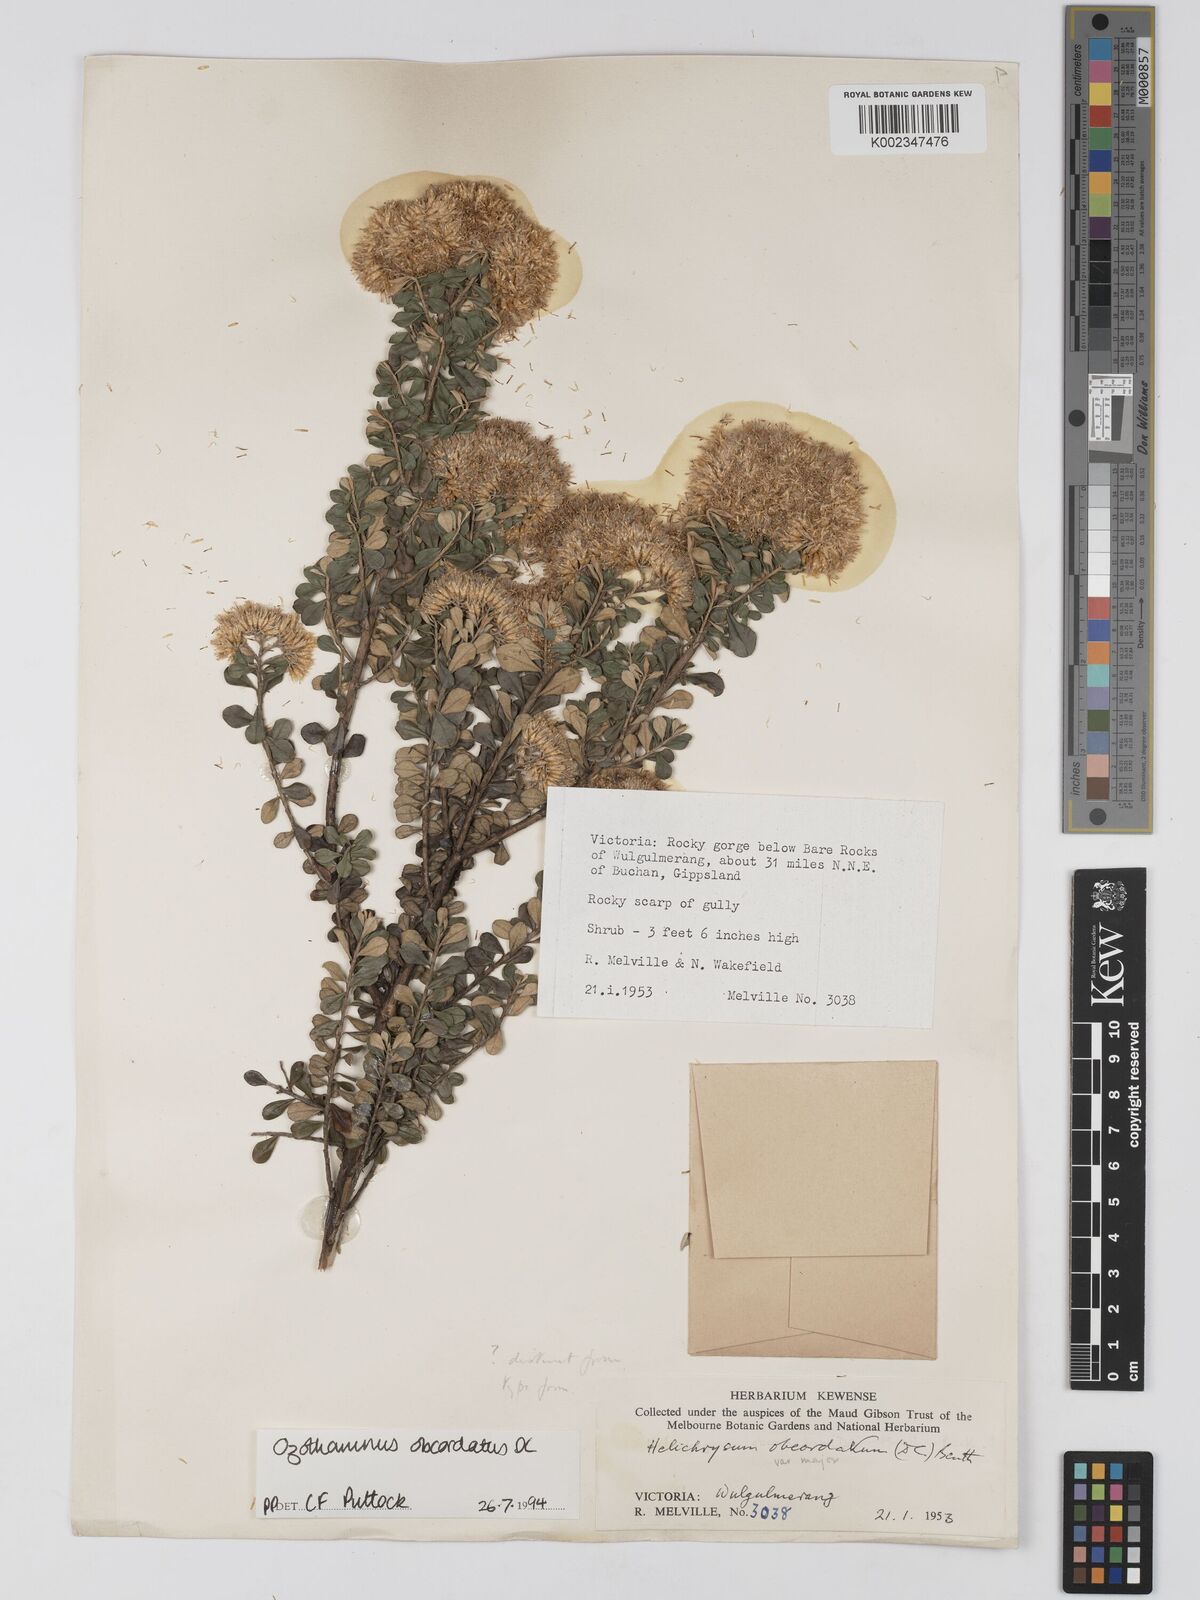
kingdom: Plantae
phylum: Tracheophyta
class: Magnoliopsida
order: Asterales
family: Asteraceae
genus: Ozothamnus
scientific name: Ozothamnus
